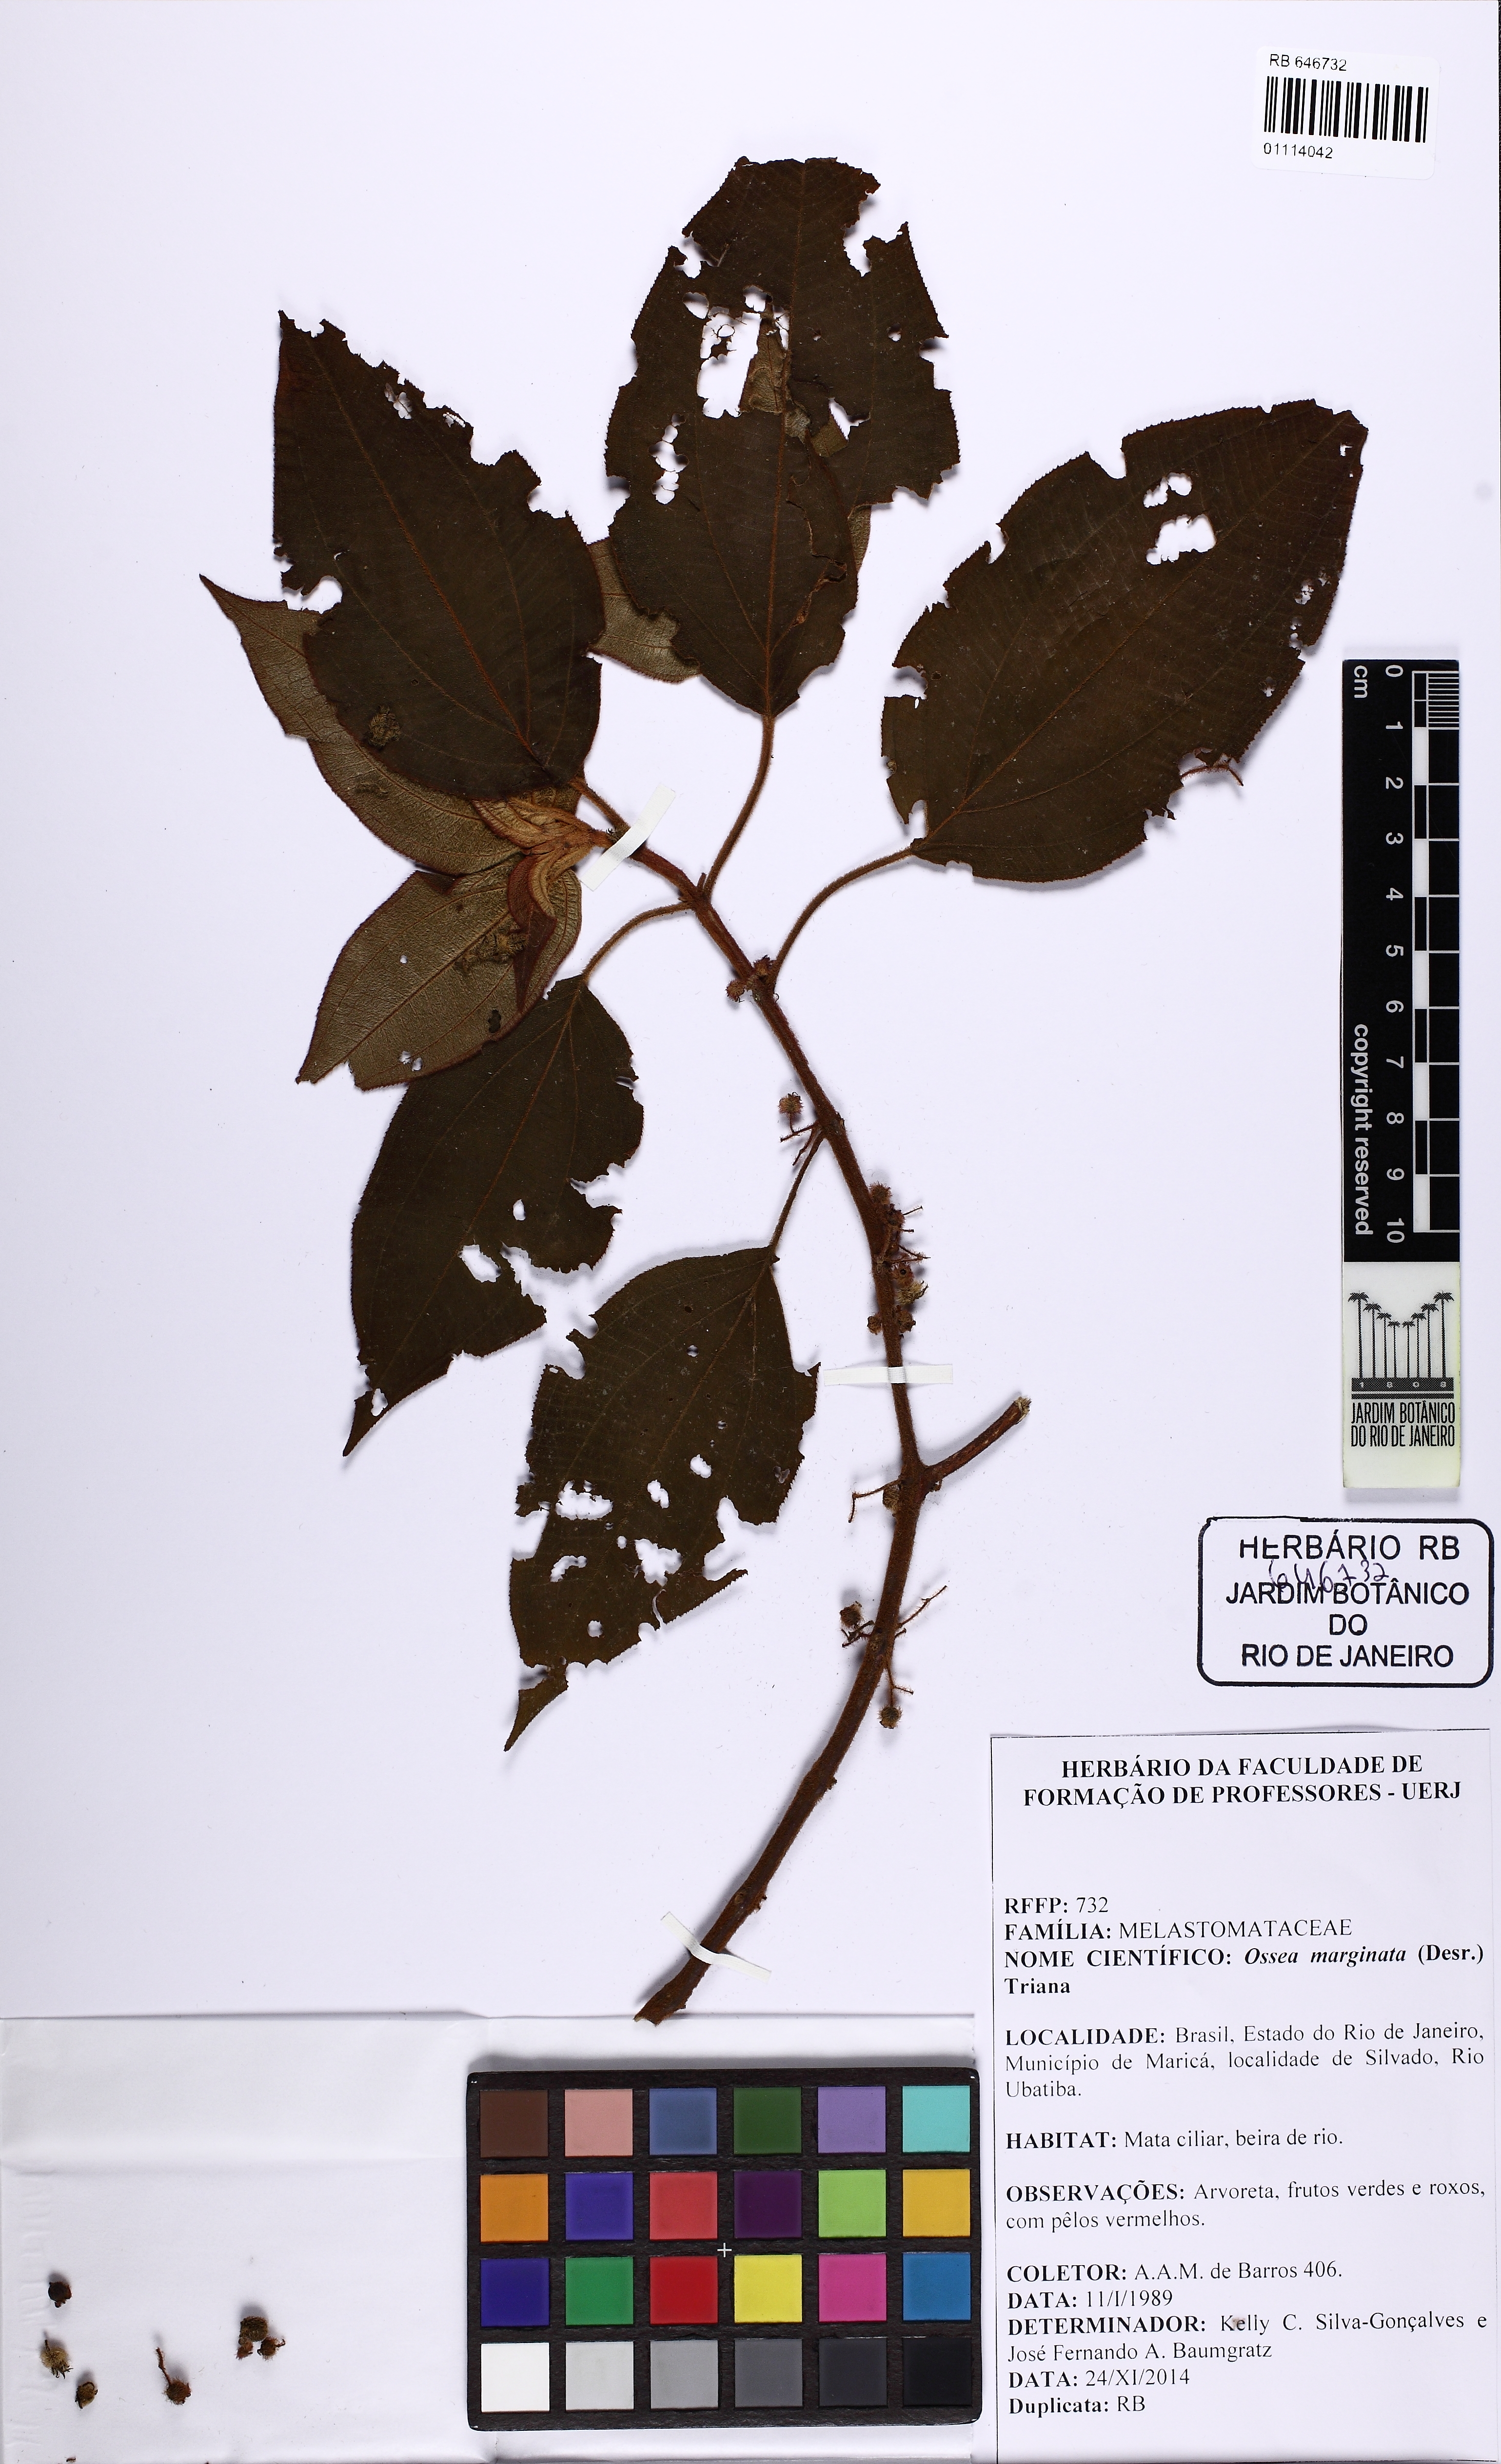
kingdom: Plantae
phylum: Tracheophyta
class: Magnoliopsida
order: Myrtales
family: Melastomataceae
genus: Miconia
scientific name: Miconia leamarginata
